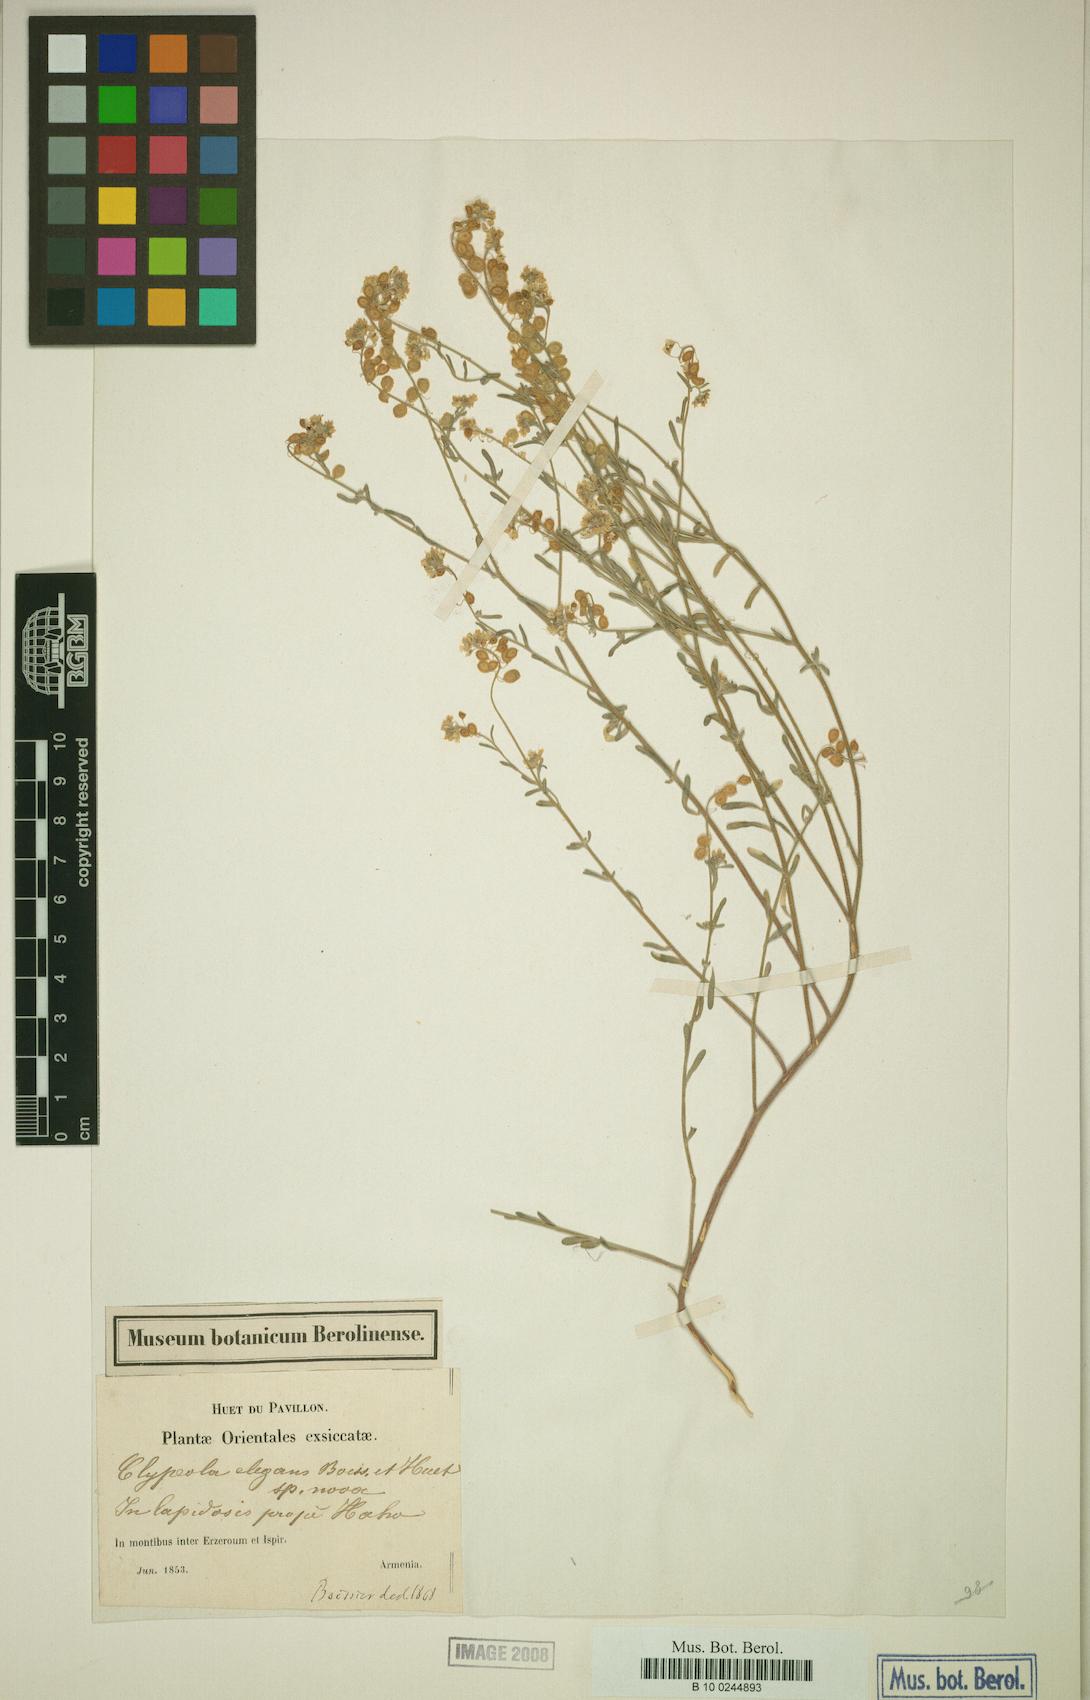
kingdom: Plantae
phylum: Tracheophyta
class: Magnoliopsida
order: Brassicales
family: Brassicaceae
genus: Clypeola
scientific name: Clypeola elegans
